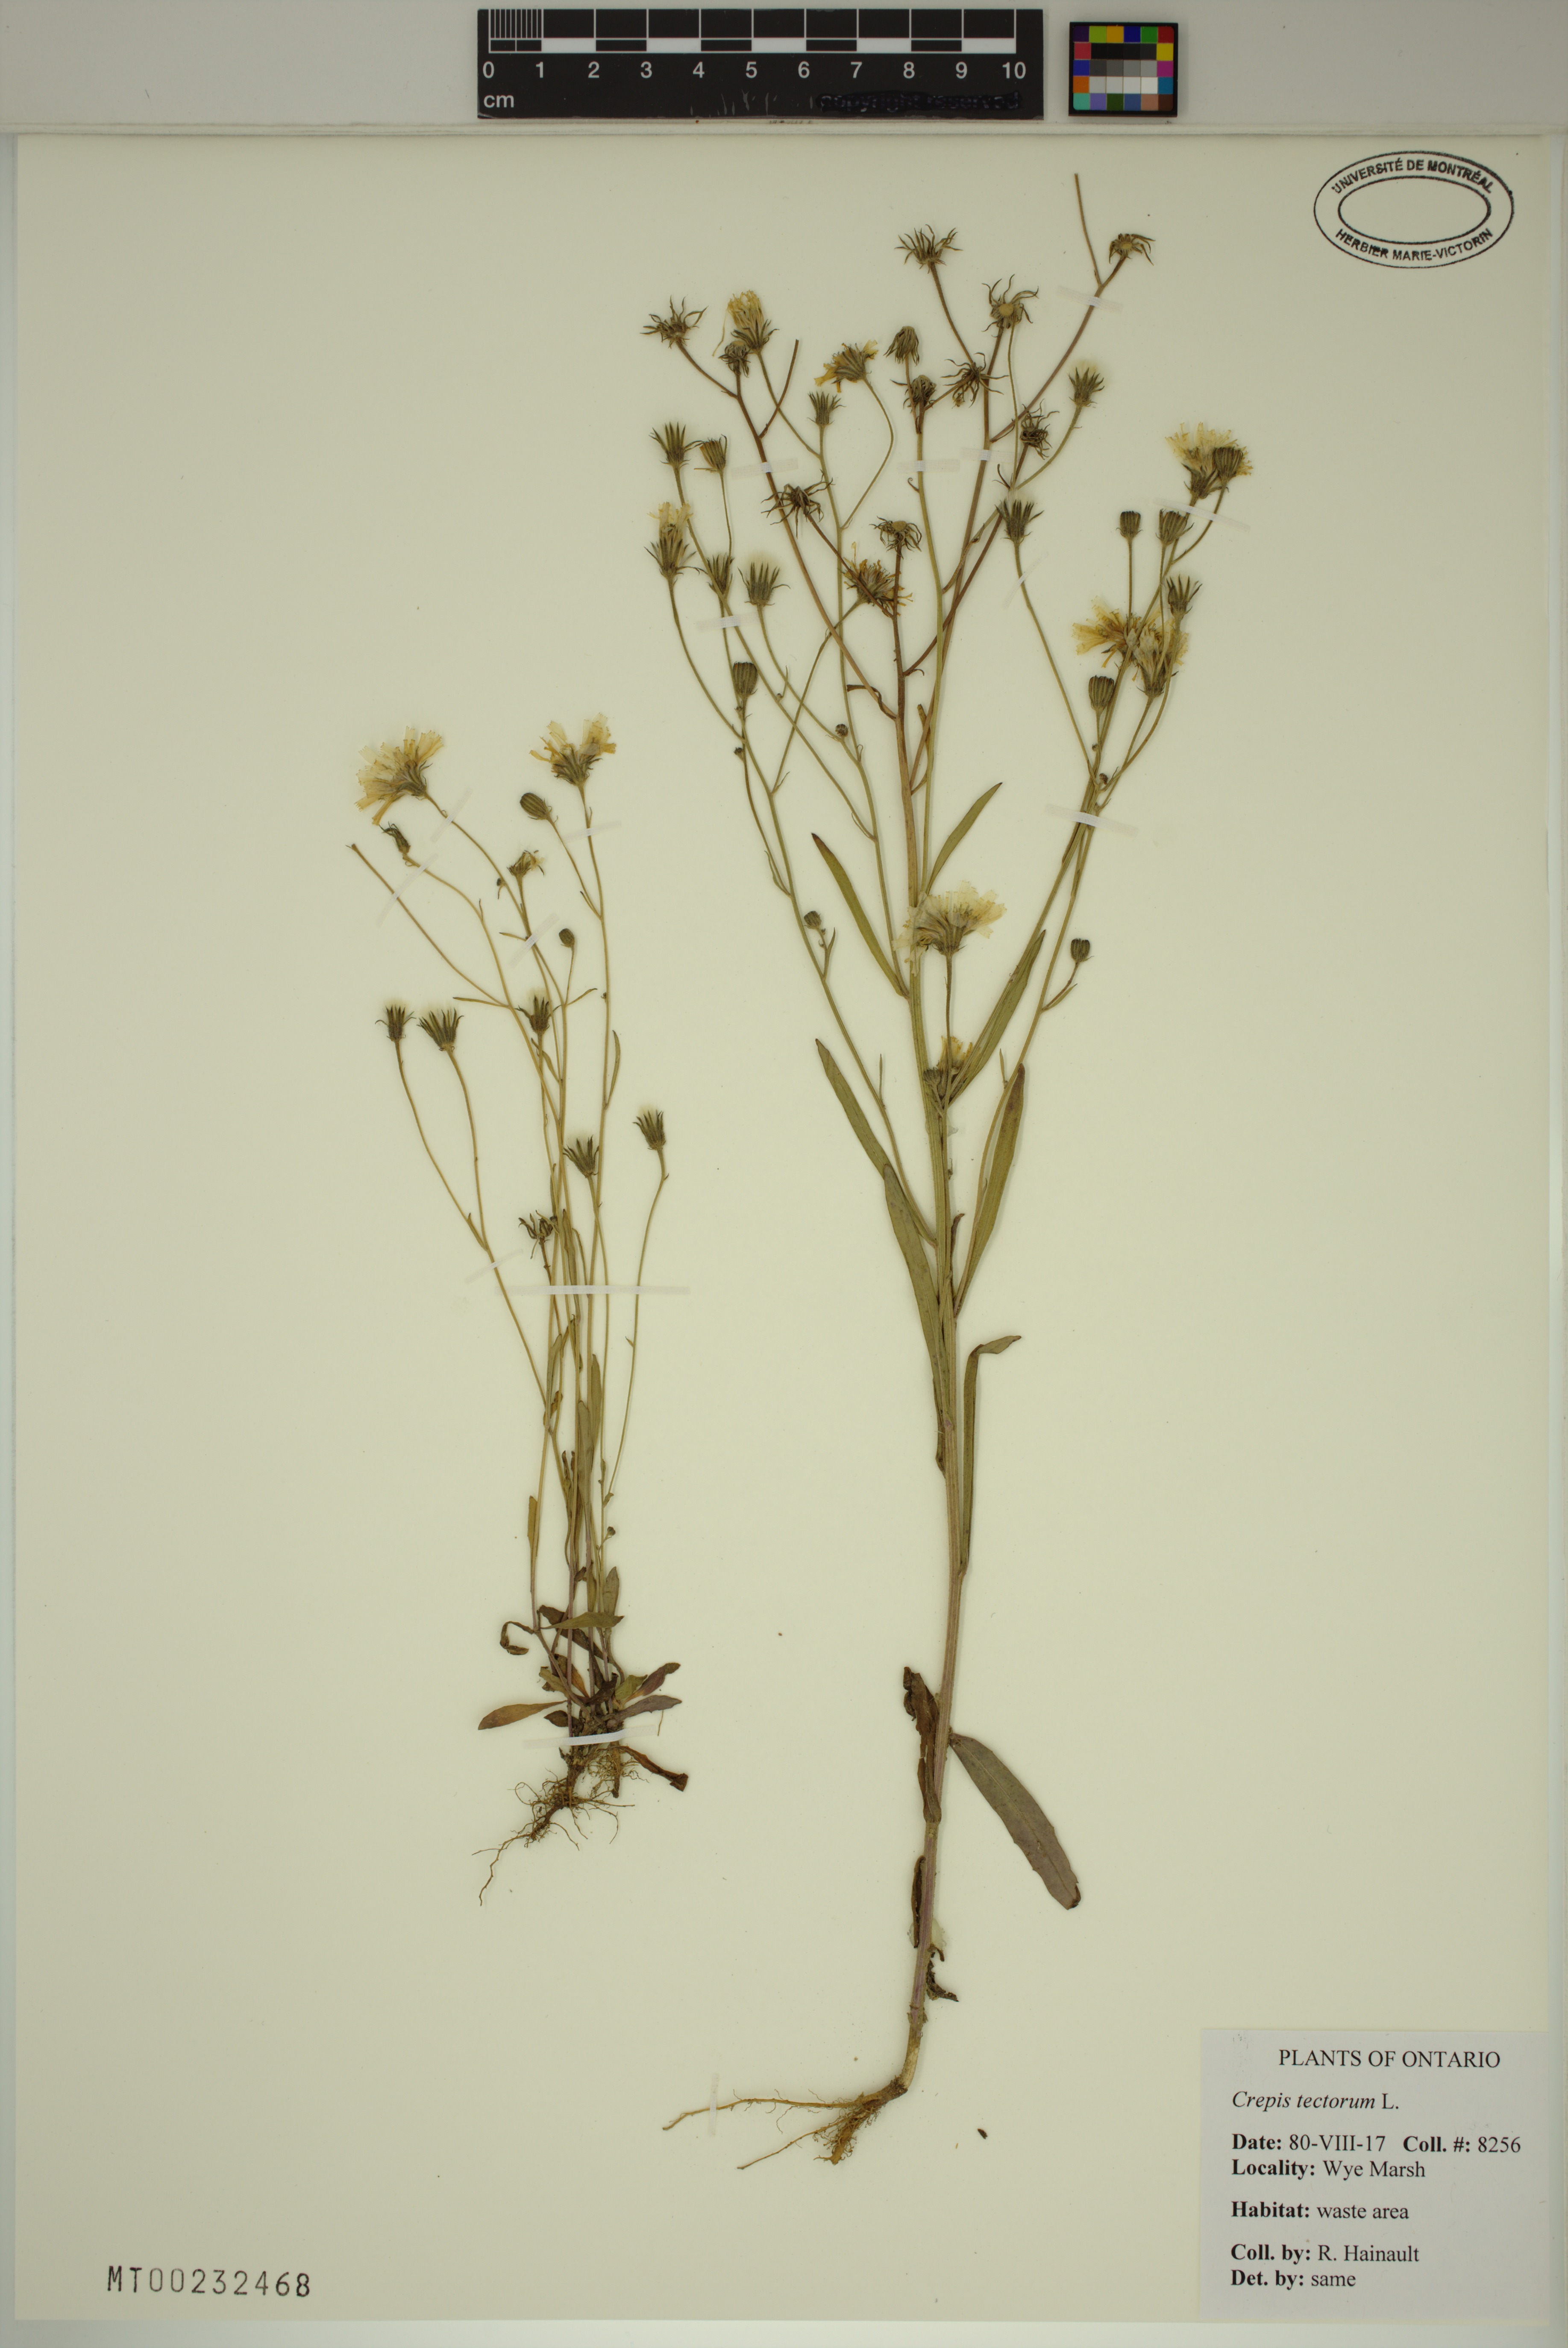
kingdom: Plantae
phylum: Tracheophyta
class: Magnoliopsida
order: Asterales
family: Asteraceae
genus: Crepis
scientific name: Crepis tectorum
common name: Narrow-leaved hawk's-beard
